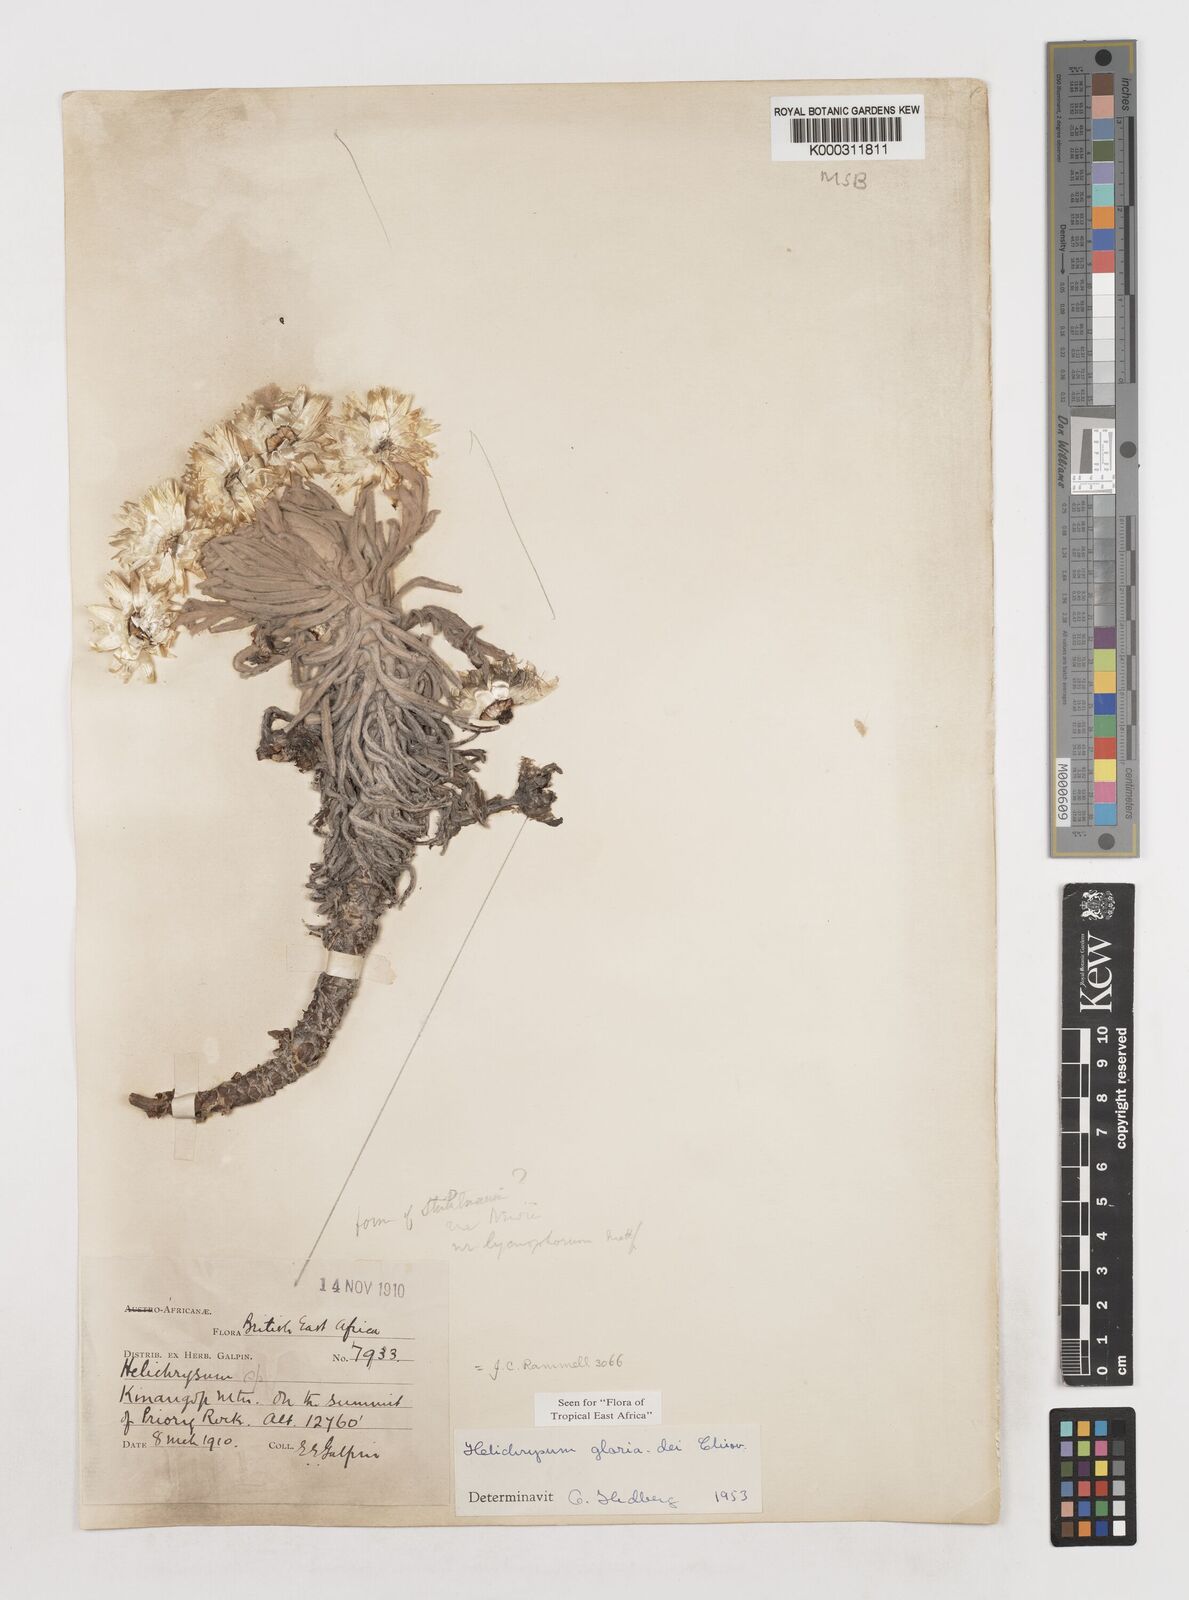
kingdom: Plantae
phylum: Tracheophyta
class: Magnoliopsida
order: Asterales
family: Asteraceae
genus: Helichrysum
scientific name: Helichrysum gloria-dei
